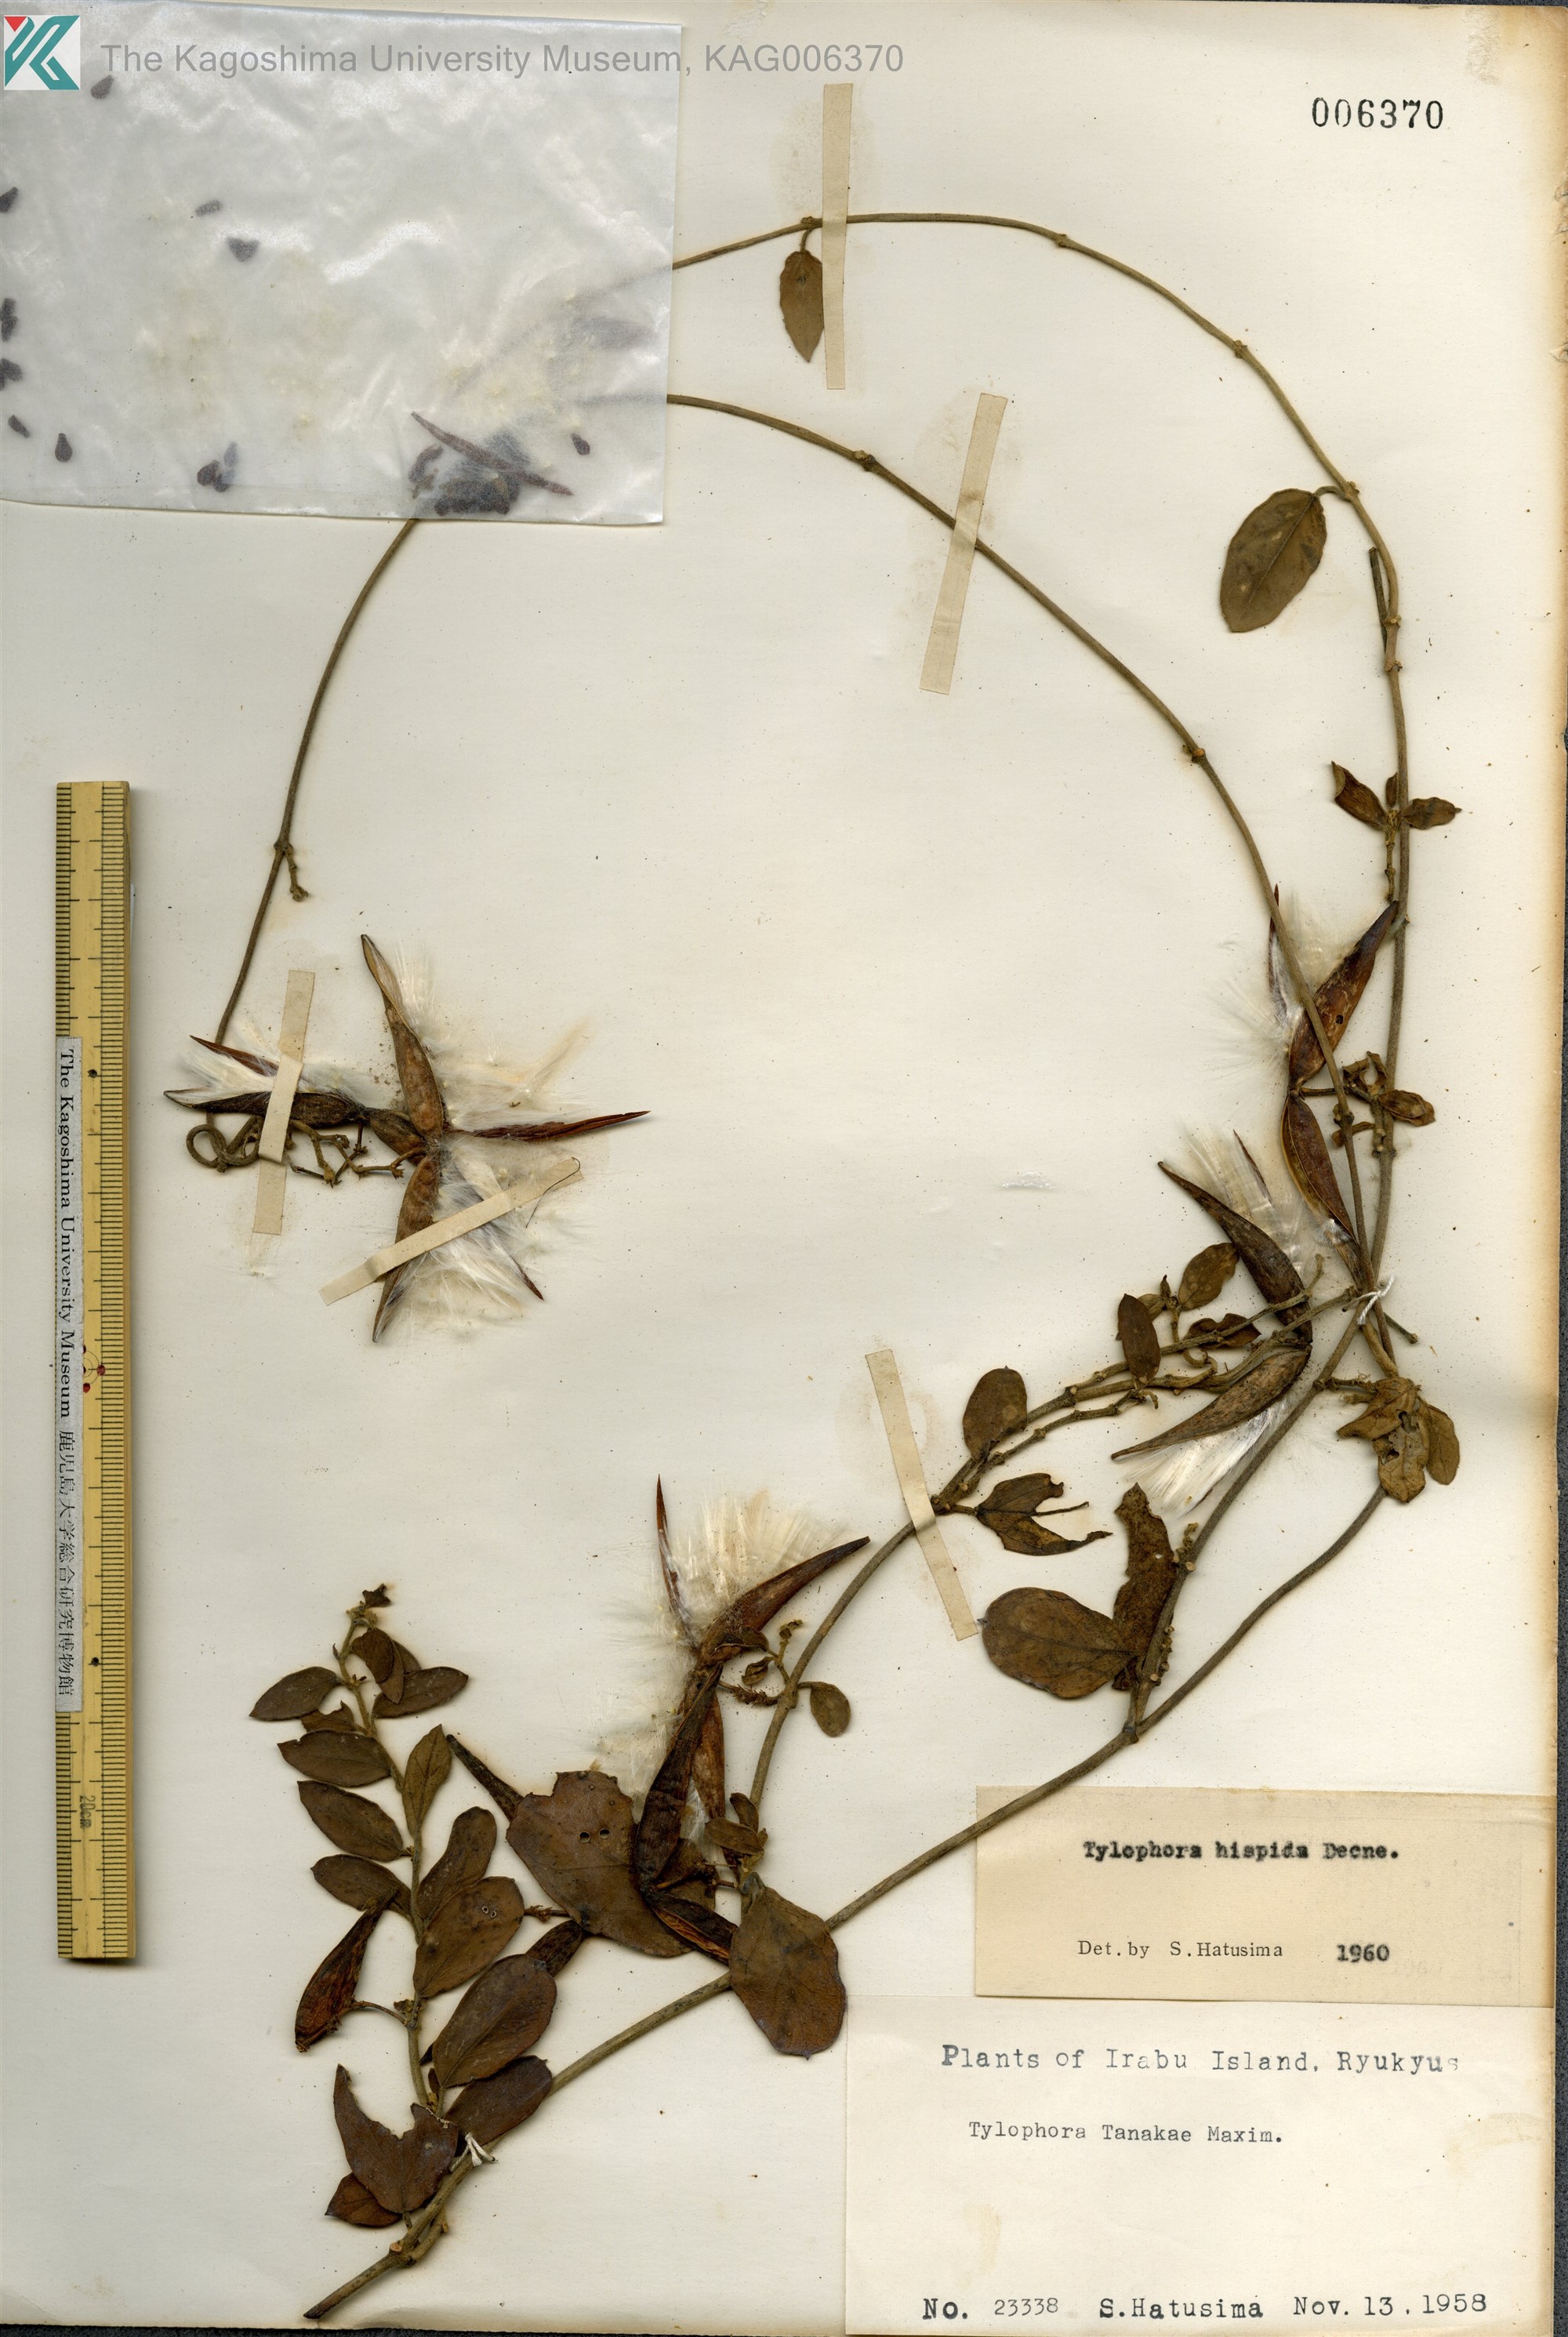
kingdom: Plantae
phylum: Tracheophyta
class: Magnoliopsida
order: Gentianales
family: Apocynaceae
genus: Vincetoxicum
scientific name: Vincetoxicum hirsutum
